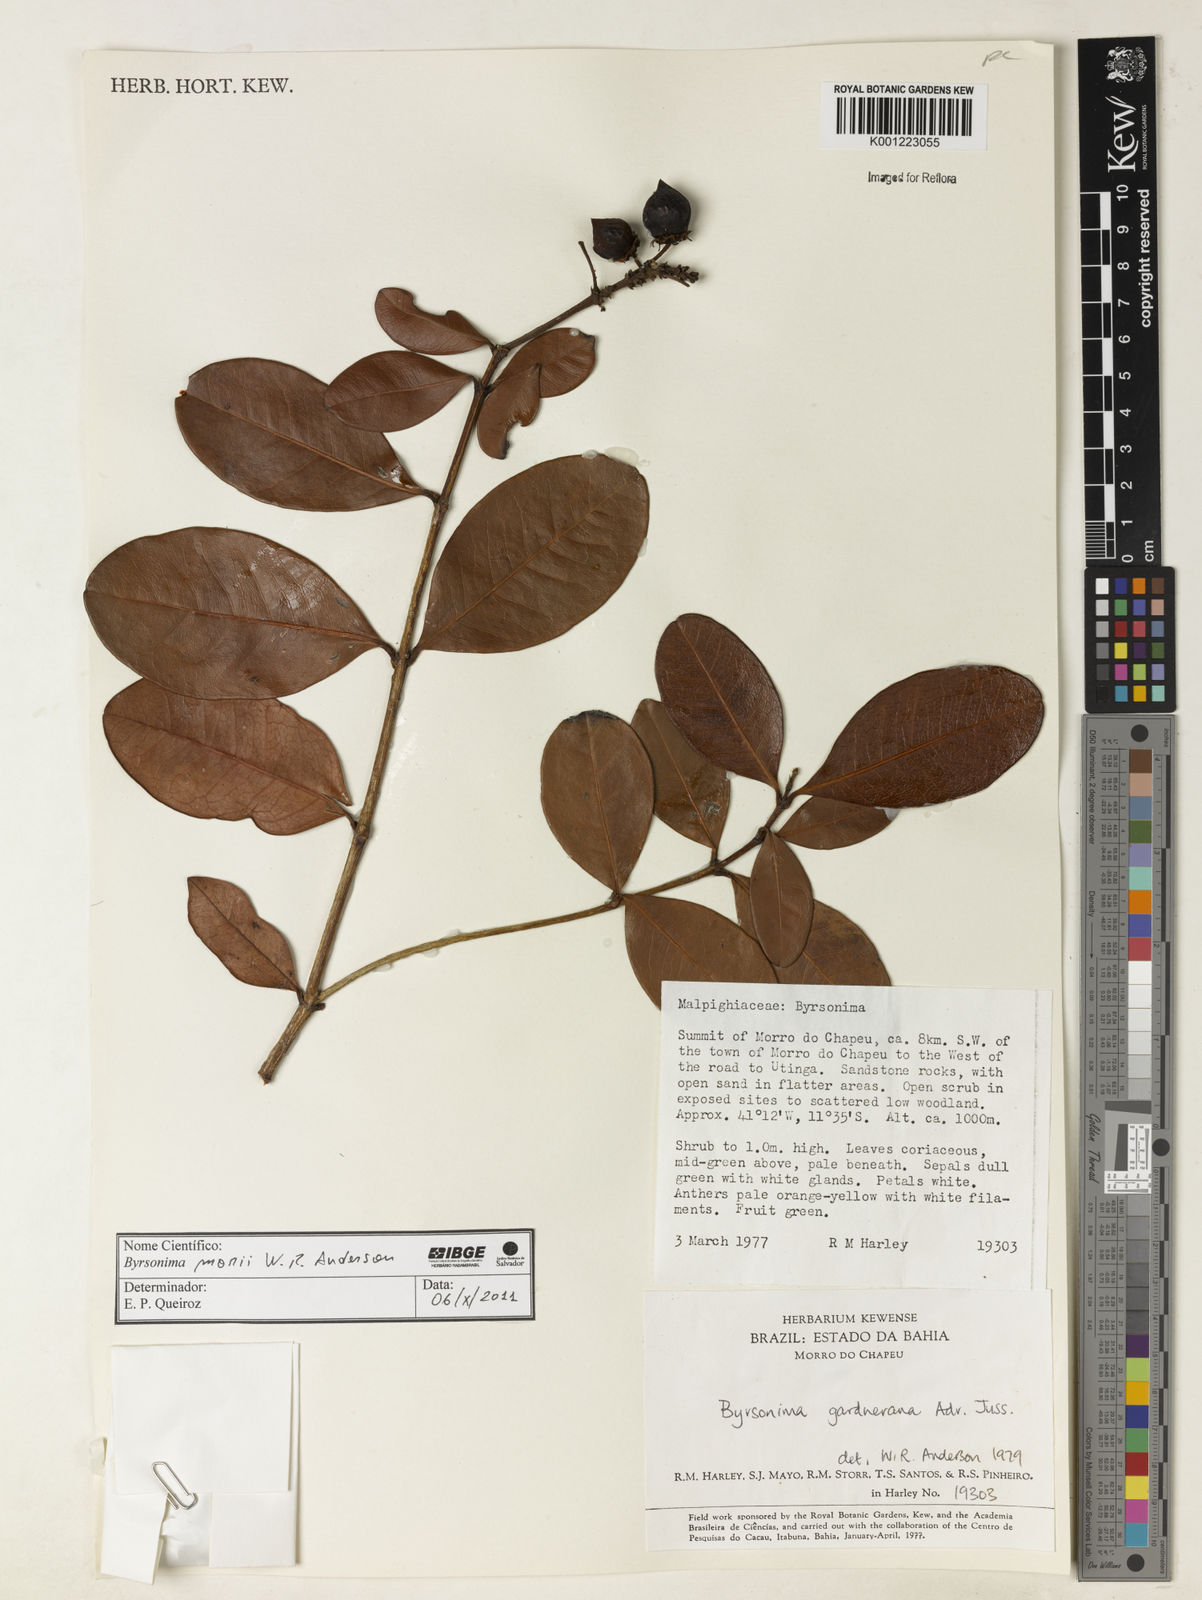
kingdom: Plantae
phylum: Tracheophyta
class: Magnoliopsida
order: Malpighiales
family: Malpighiaceae
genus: Byrsonima
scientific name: Byrsonima morii
